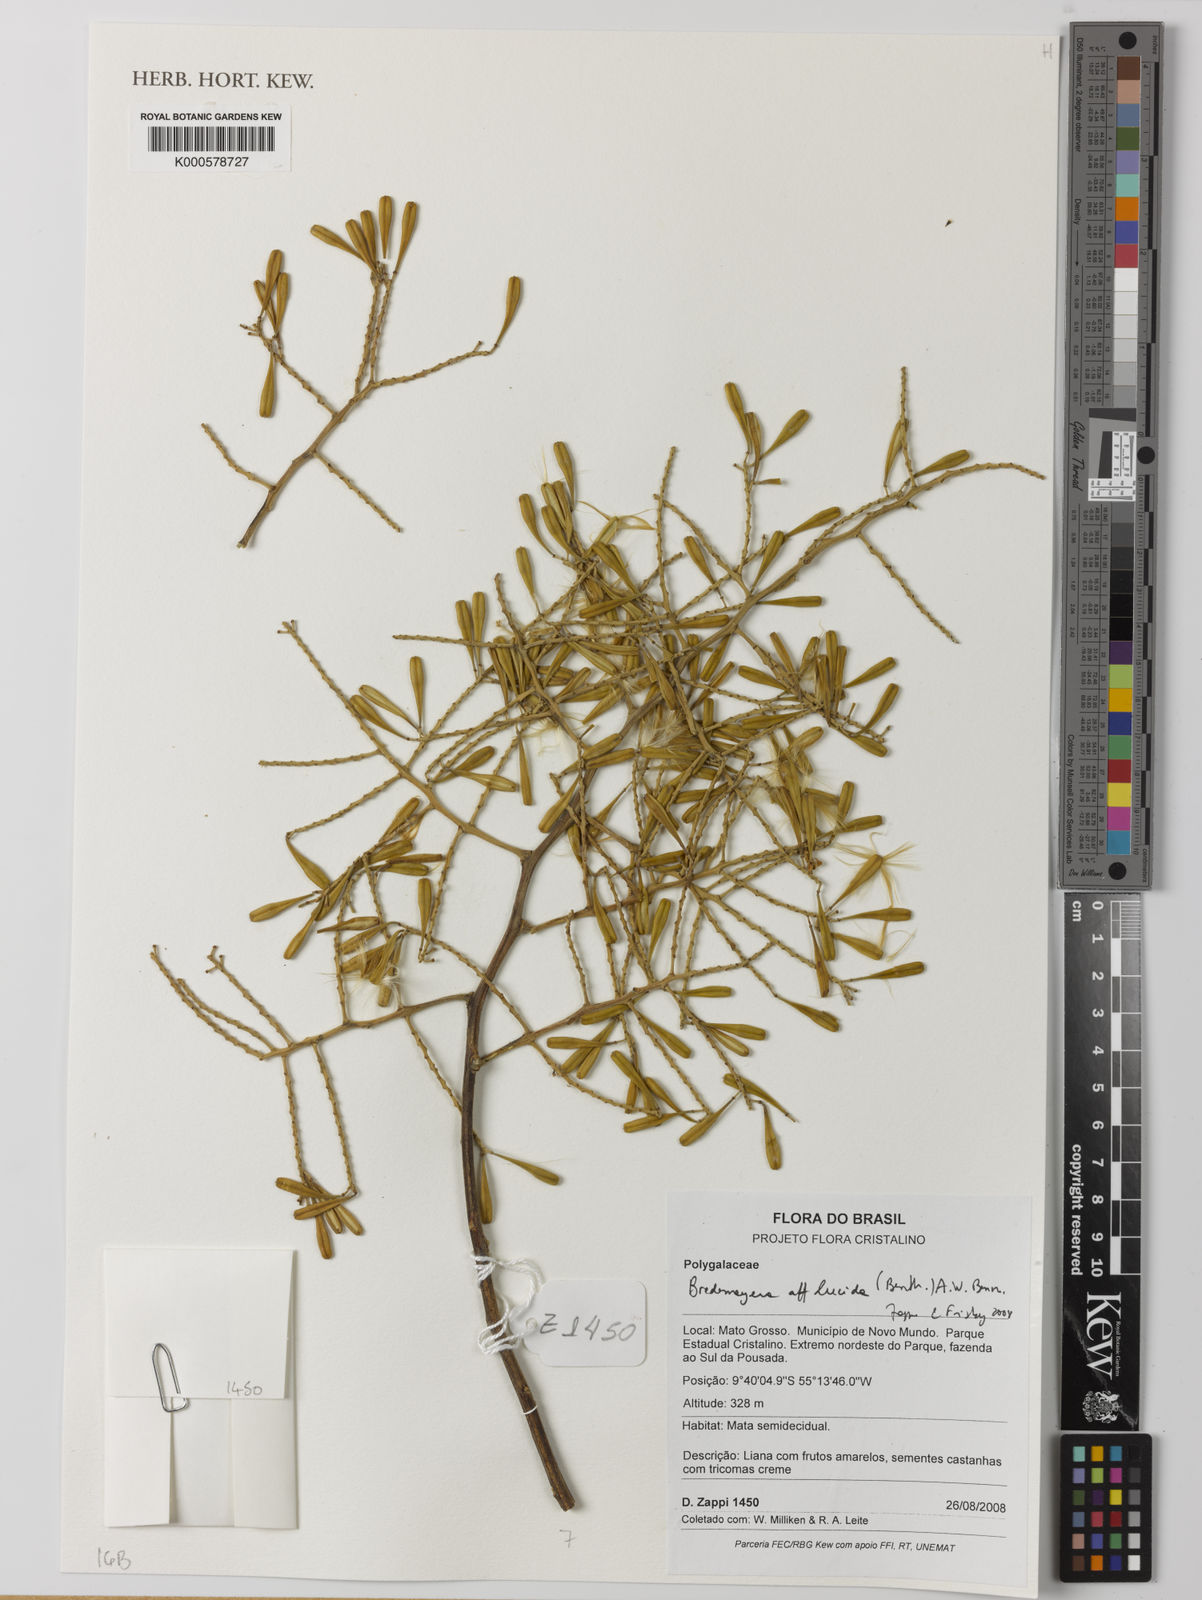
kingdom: Plantae
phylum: Tracheophyta
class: Magnoliopsida
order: Fabales
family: Polygalaceae
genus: Bredemeyera
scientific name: Bredemeyera
